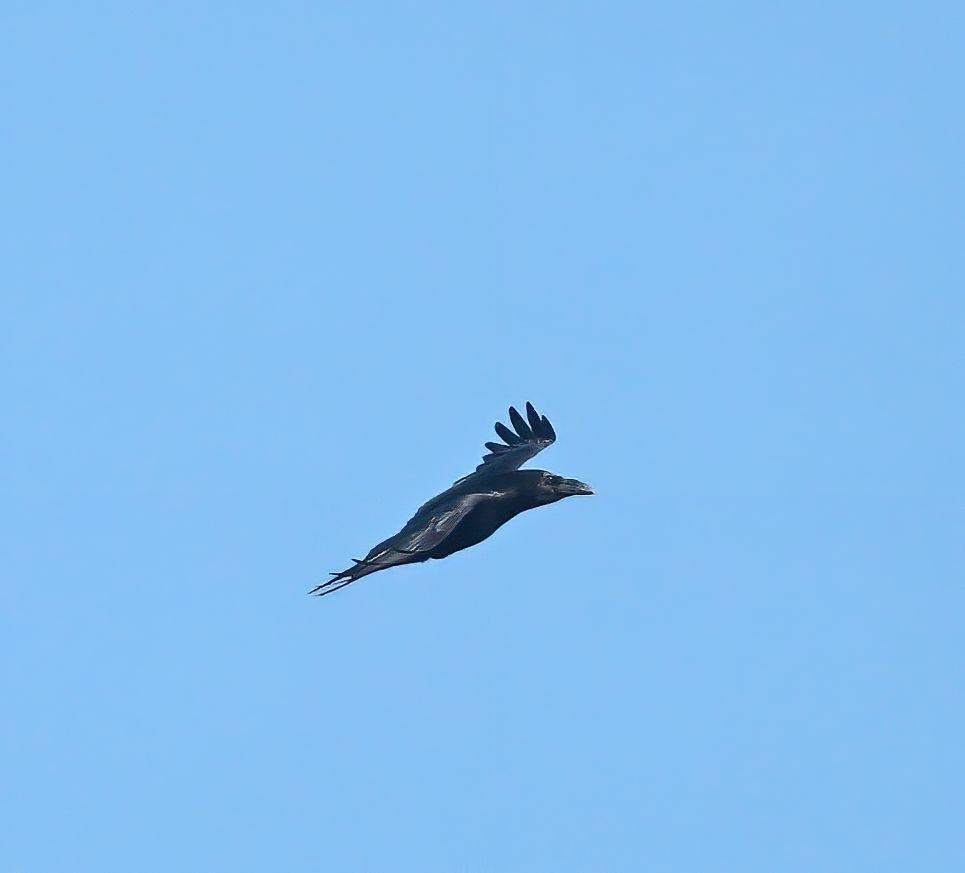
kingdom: Animalia
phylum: Chordata
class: Aves
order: Passeriformes
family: Corvidae
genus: Corvus
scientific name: Corvus corax
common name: Ravn
